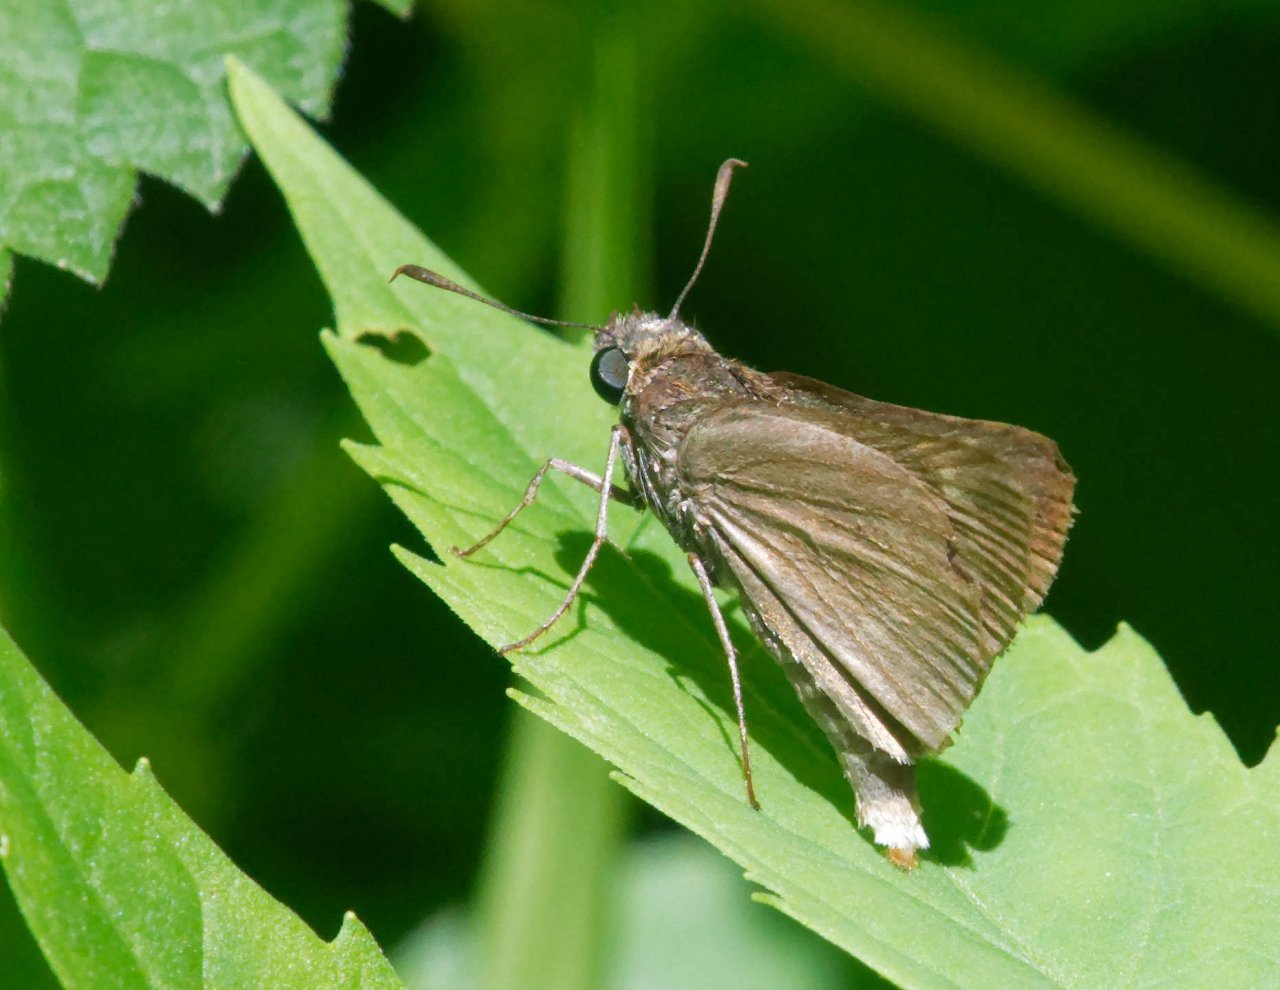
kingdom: Animalia
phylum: Arthropoda
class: Insecta
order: Lepidoptera
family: Hesperiidae
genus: Euphyes
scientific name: Euphyes vestris
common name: Dun Skipper
